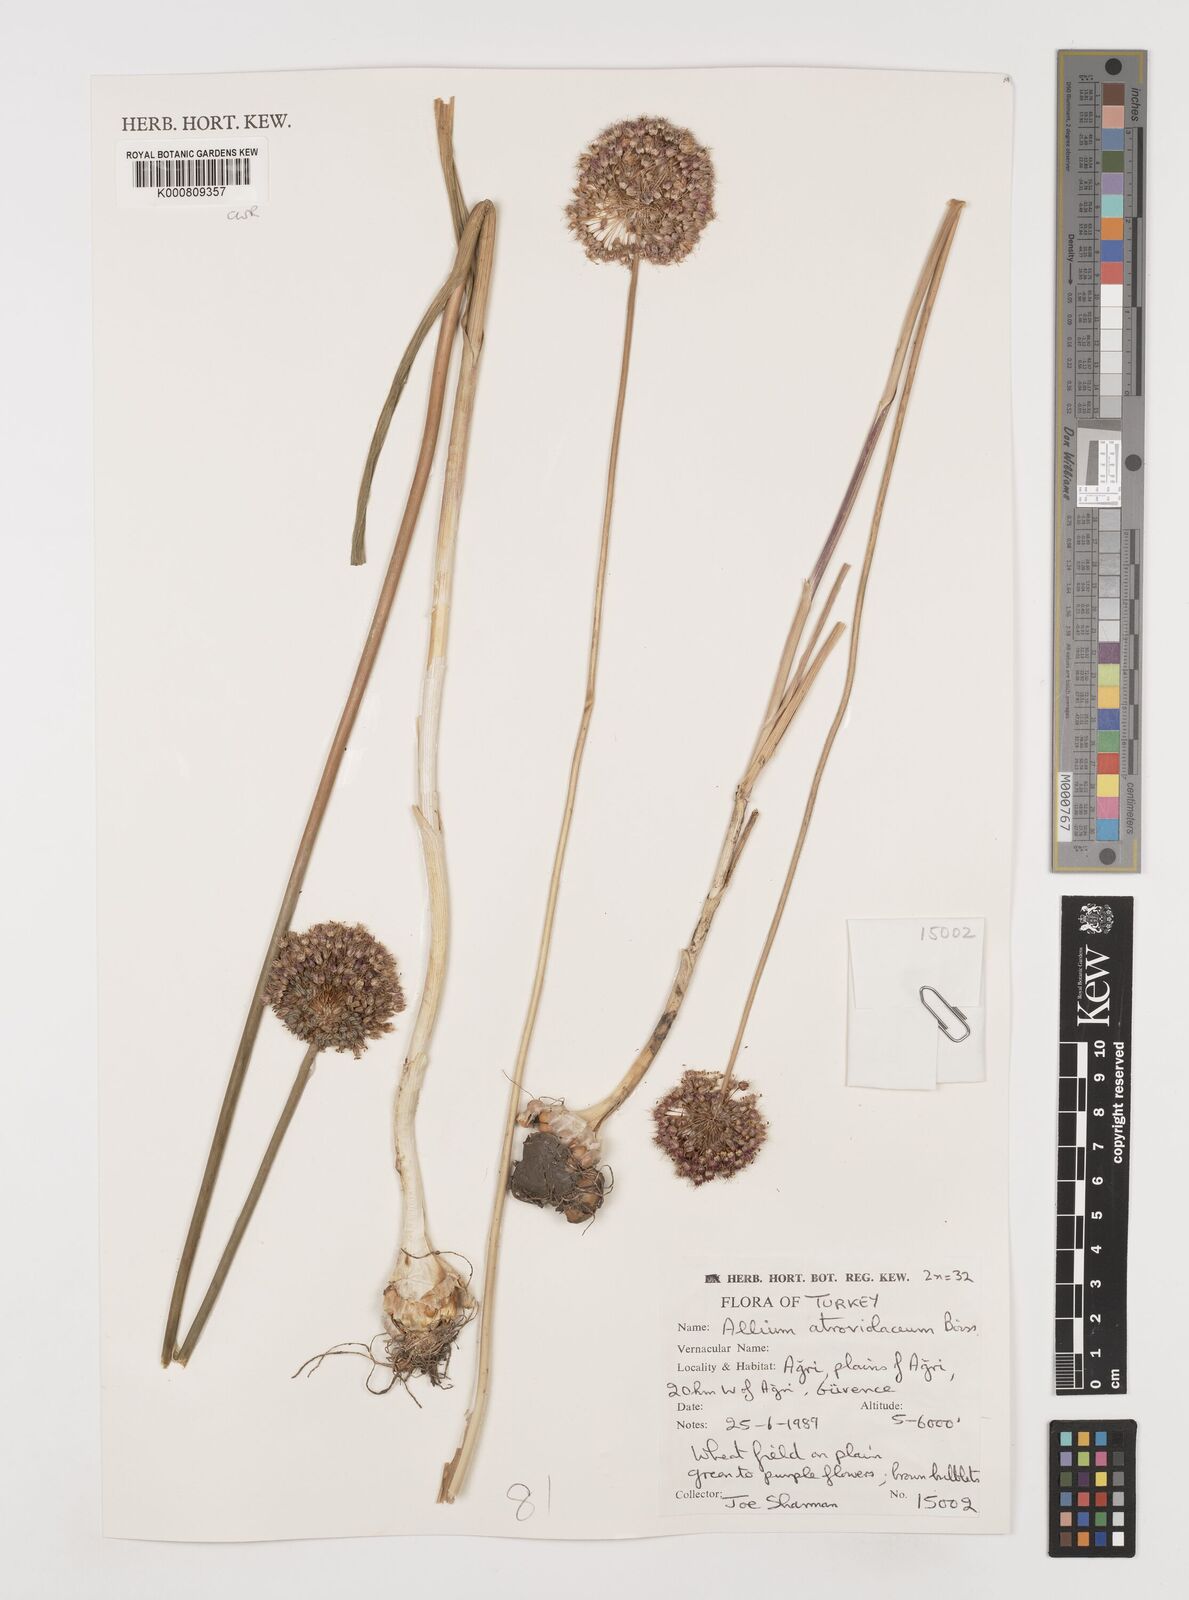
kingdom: Plantae
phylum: Tracheophyta
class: Liliopsida
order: Asparagales
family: Amaryllidaceae
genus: Allium
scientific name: Allium atroviolaceum
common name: Broadleaf wild leek
